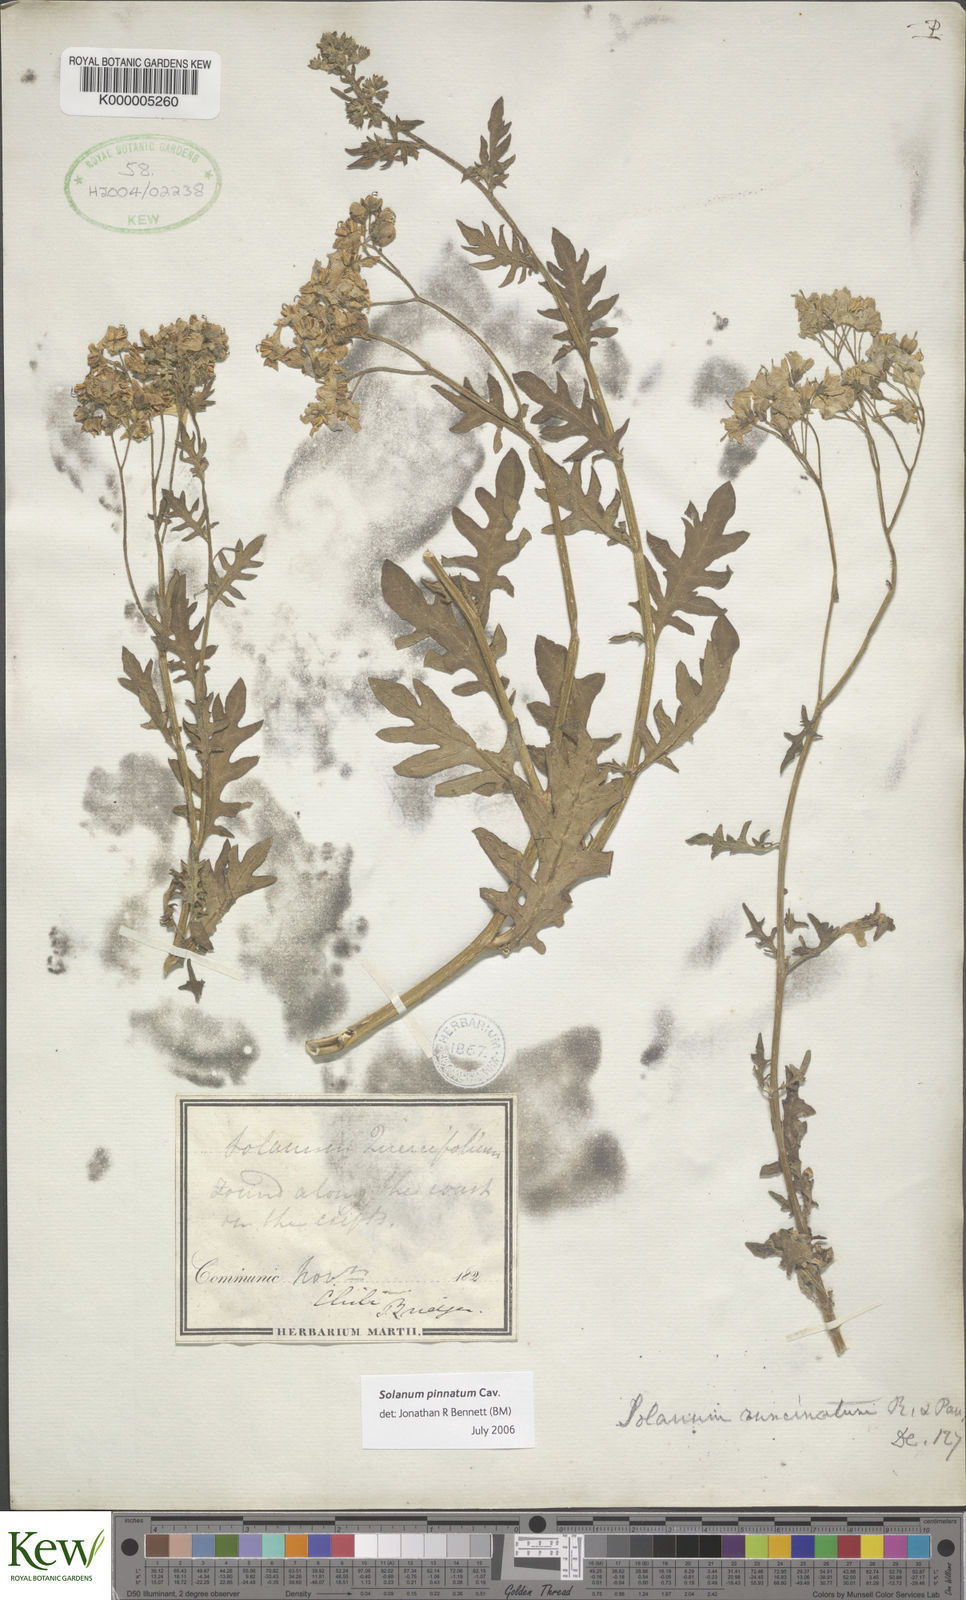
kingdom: Plantae
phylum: Tracheophyta
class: Magnoliopsida
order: Solanales
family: Solanaceae
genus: Solanum
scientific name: Solanum pinnatum
